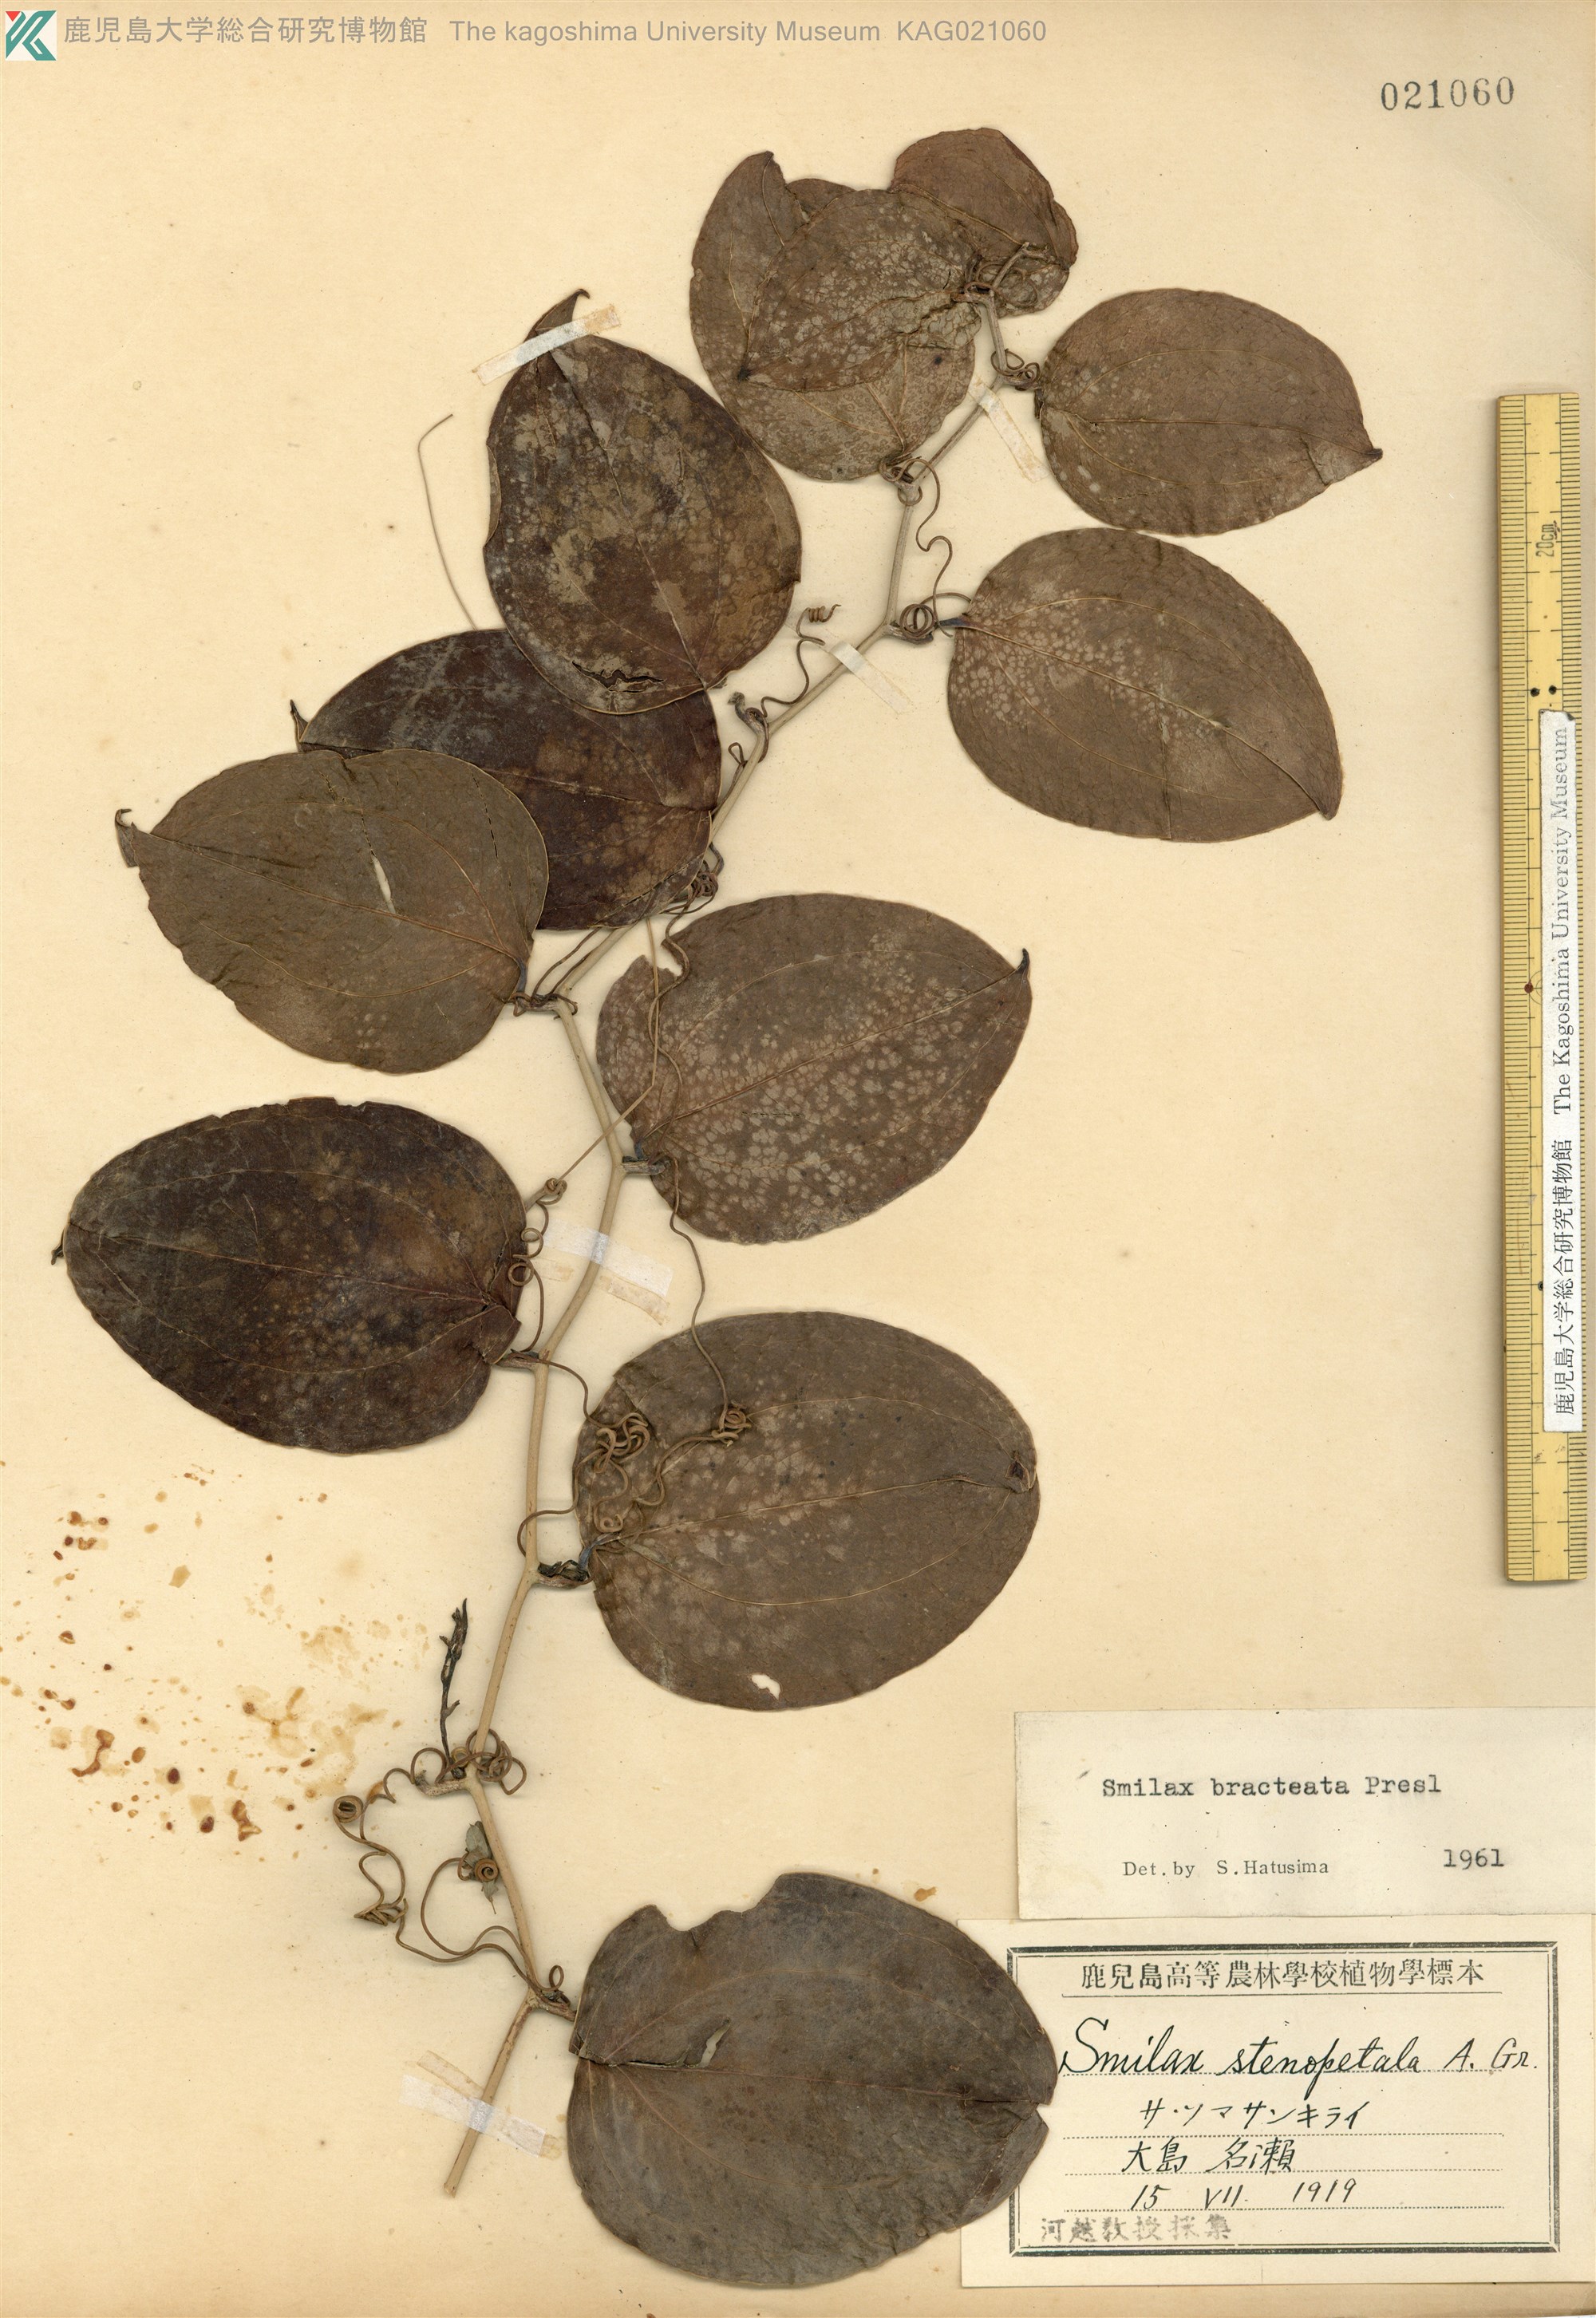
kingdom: Plantae
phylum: Tracheophyta
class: Liliopsida
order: Liliales
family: Smilacaceae
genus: Smilax
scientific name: Smilax bracteata
